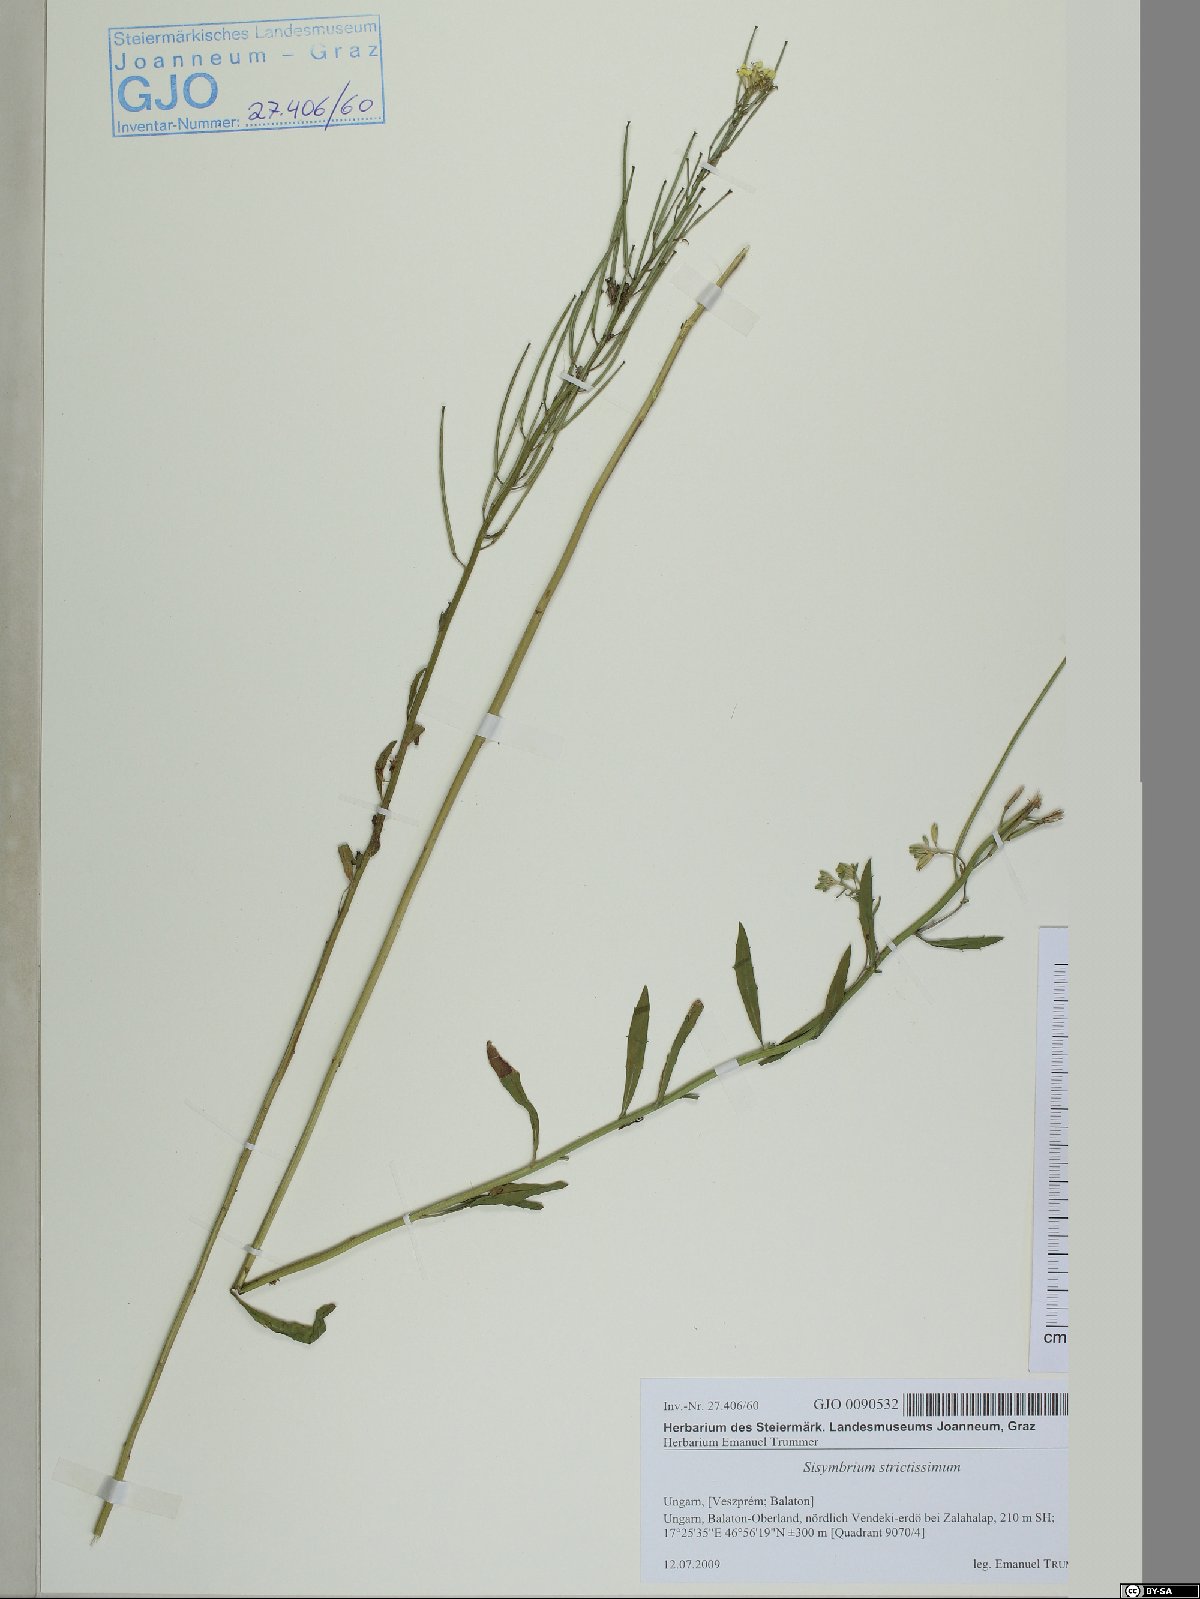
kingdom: Plantae
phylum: Tracheophyta
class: Magnoliopsida
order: Brassicales
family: Brassicaceae
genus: Sisymbrium
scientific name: Sisymbrium strictissimum
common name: Perennial rocket
